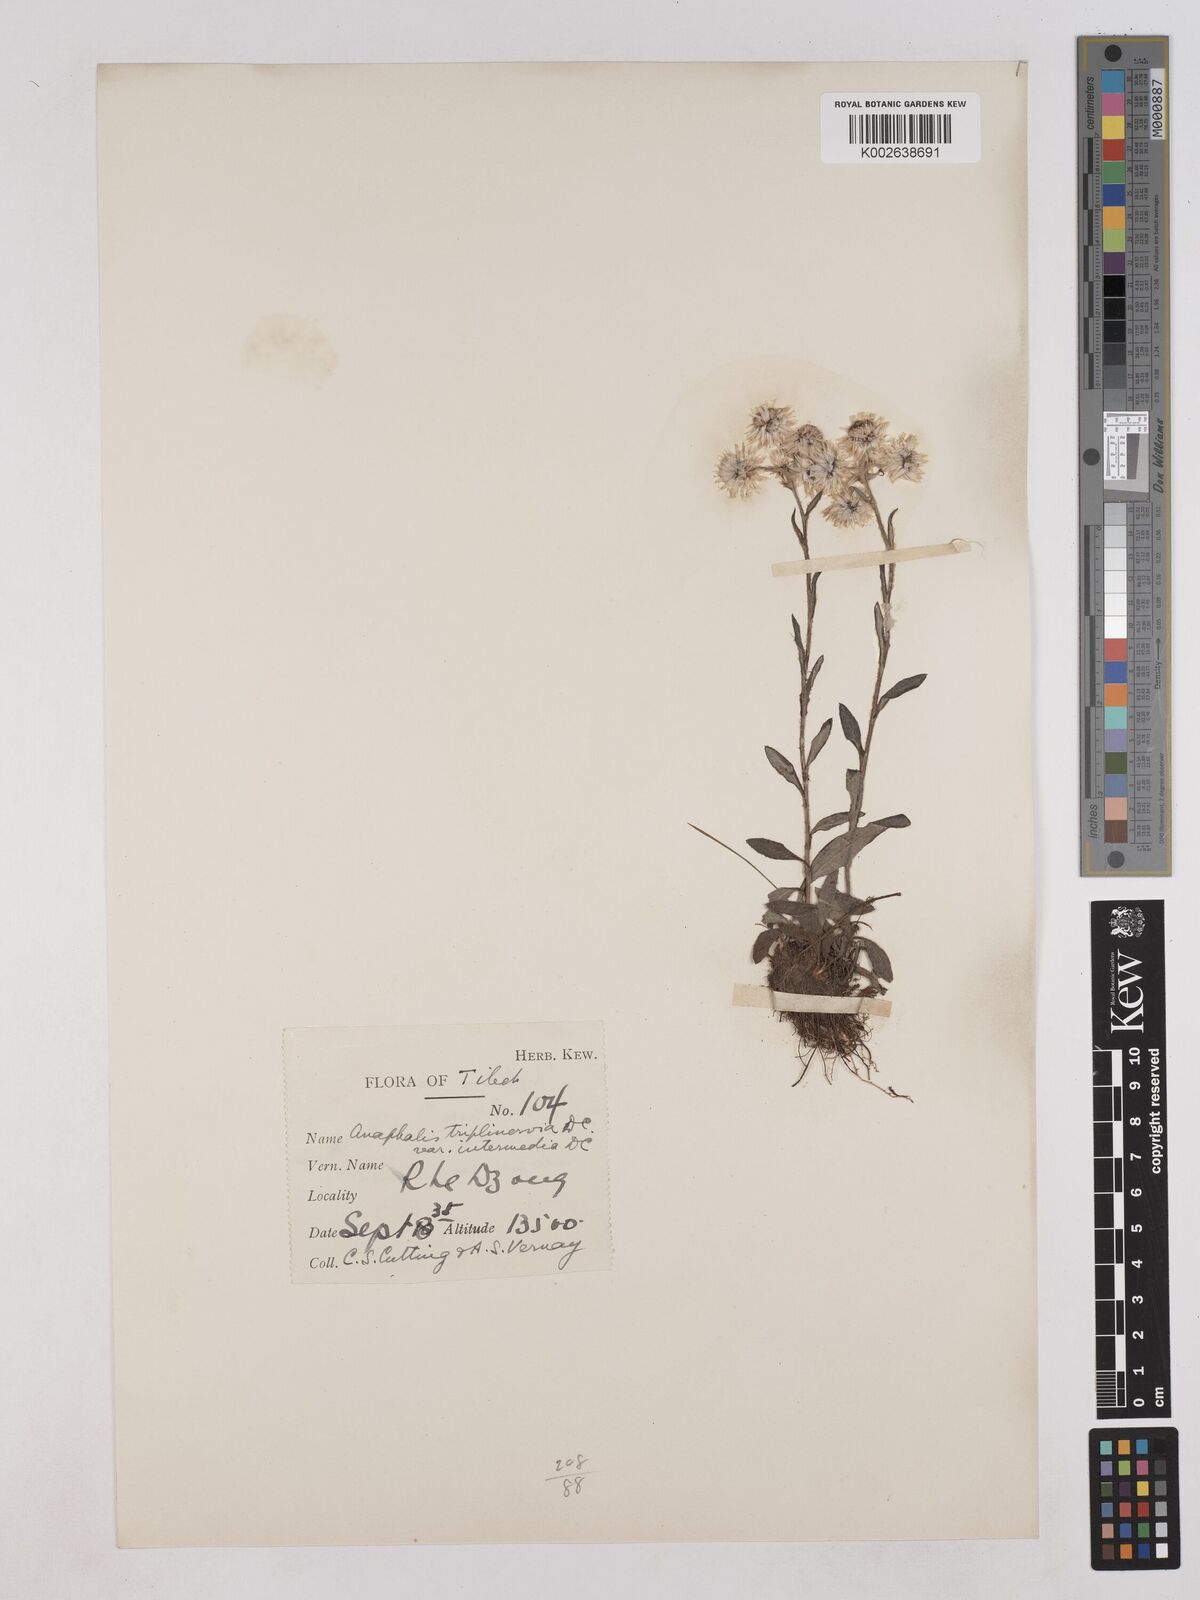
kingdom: Plantae
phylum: Tracheophyta
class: Magnoliopsida
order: Asterales
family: Asteraceae
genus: Anaphalis
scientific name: Anaphalis nepalensis
